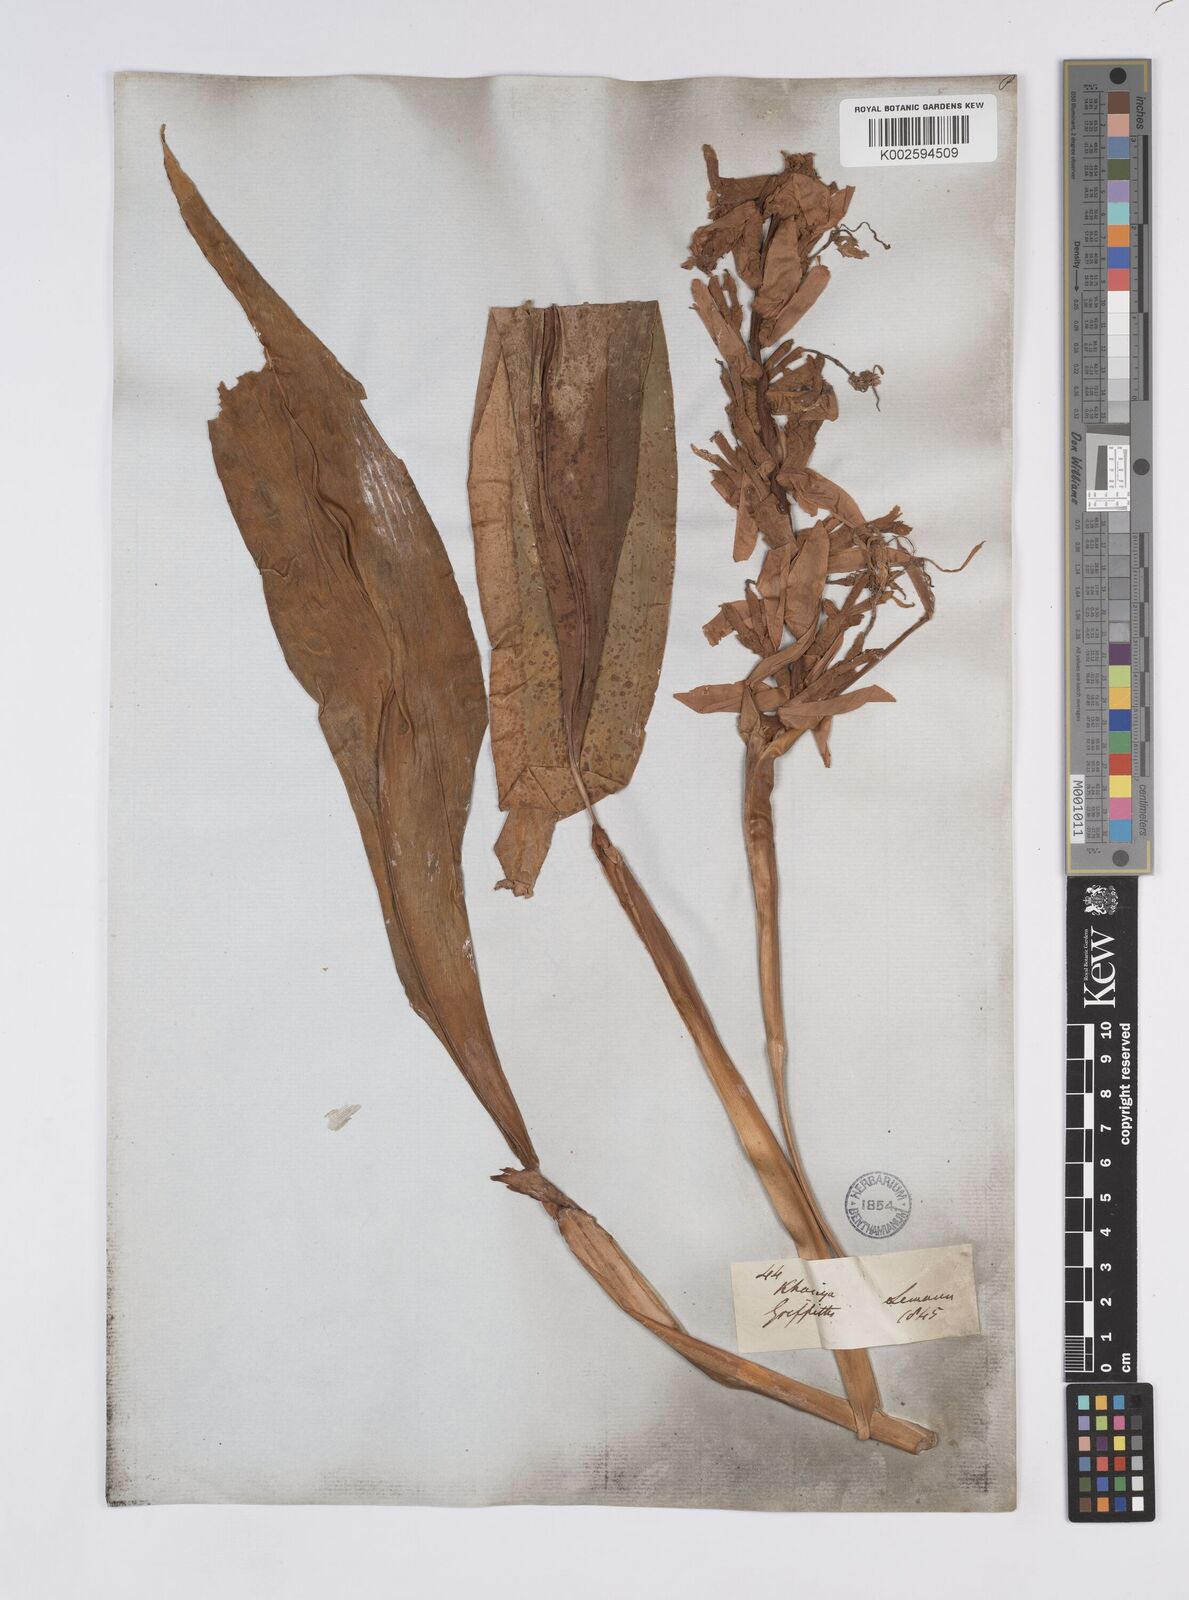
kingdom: Plantae
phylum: Tracheophyta
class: Liliopsida
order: Zingiberales
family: Zingiberaceae
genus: Hedychium
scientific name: Hedychium villosum
